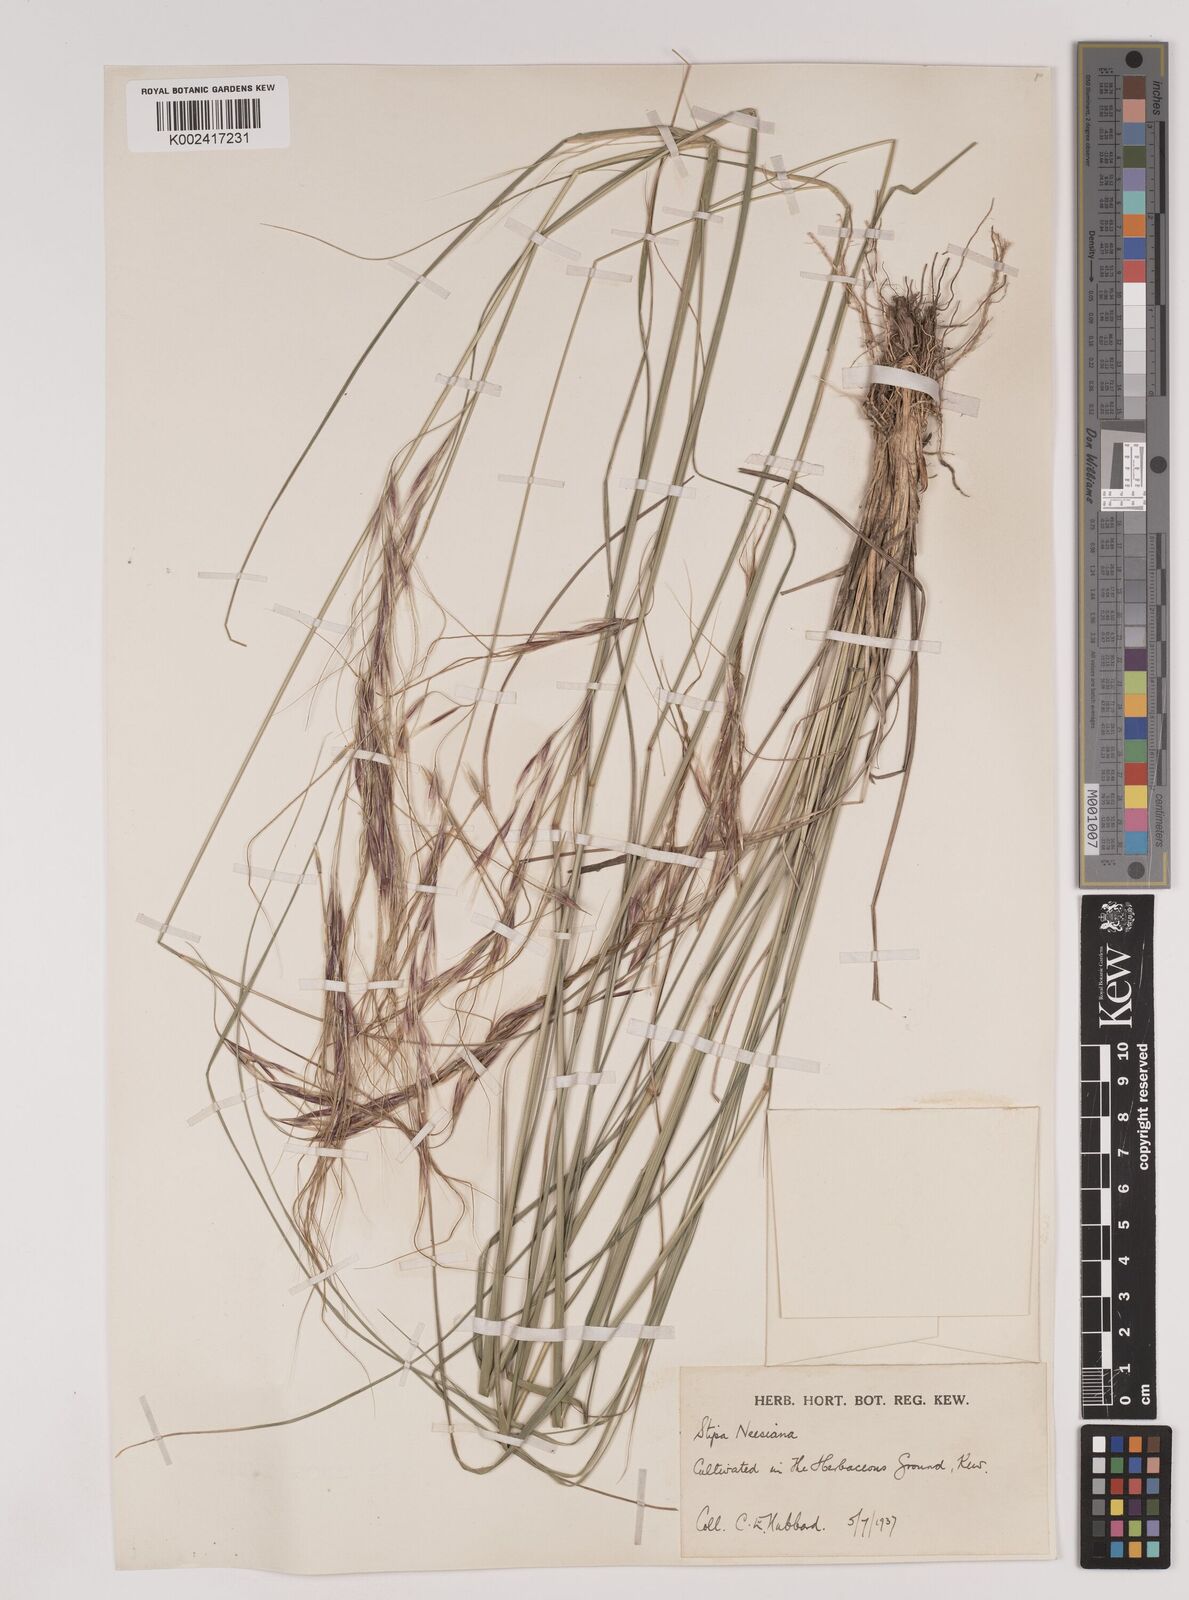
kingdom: Plantae
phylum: Tracheophyta
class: Liliopsida
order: Poales
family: Poaceae
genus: Nassella
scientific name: Nassella neesiana
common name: American needle-grass
